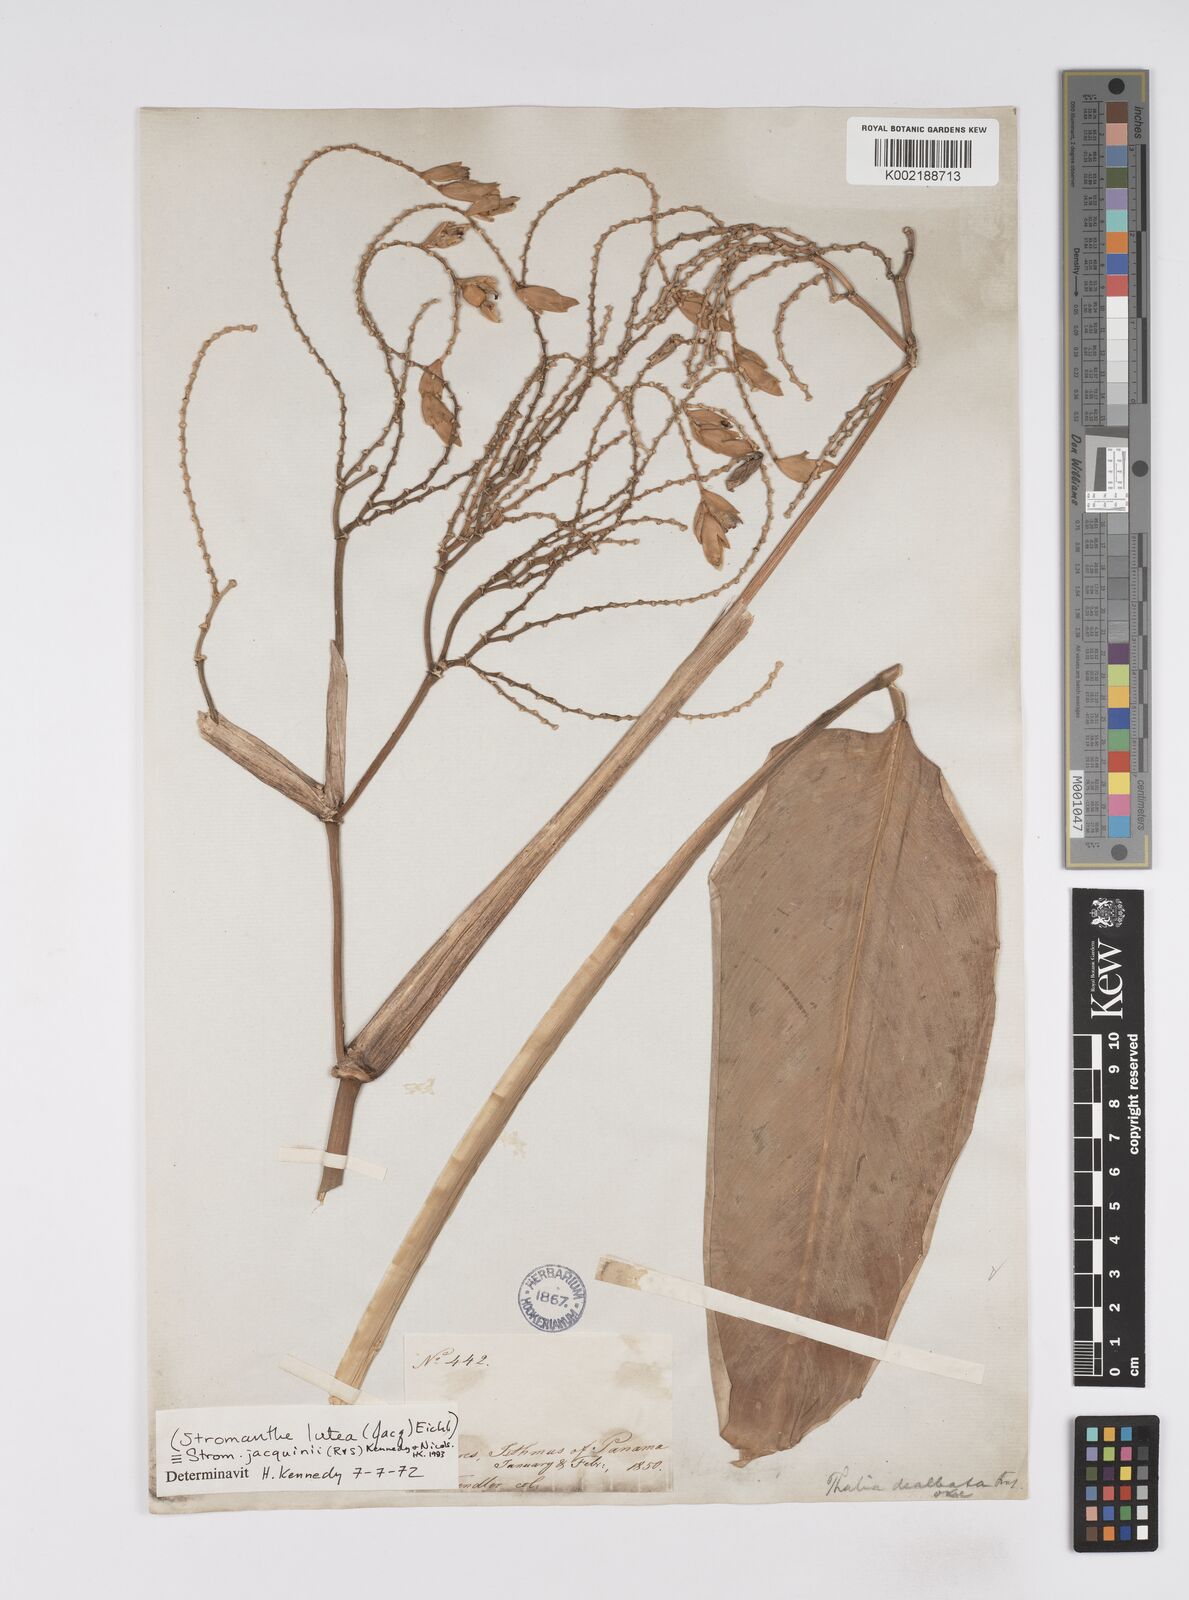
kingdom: Plantae
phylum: Tracheophyta
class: Liliopsida
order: Zingiberales
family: Marantaceae
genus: Stromanthe
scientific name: Stromanthe jacquinii
